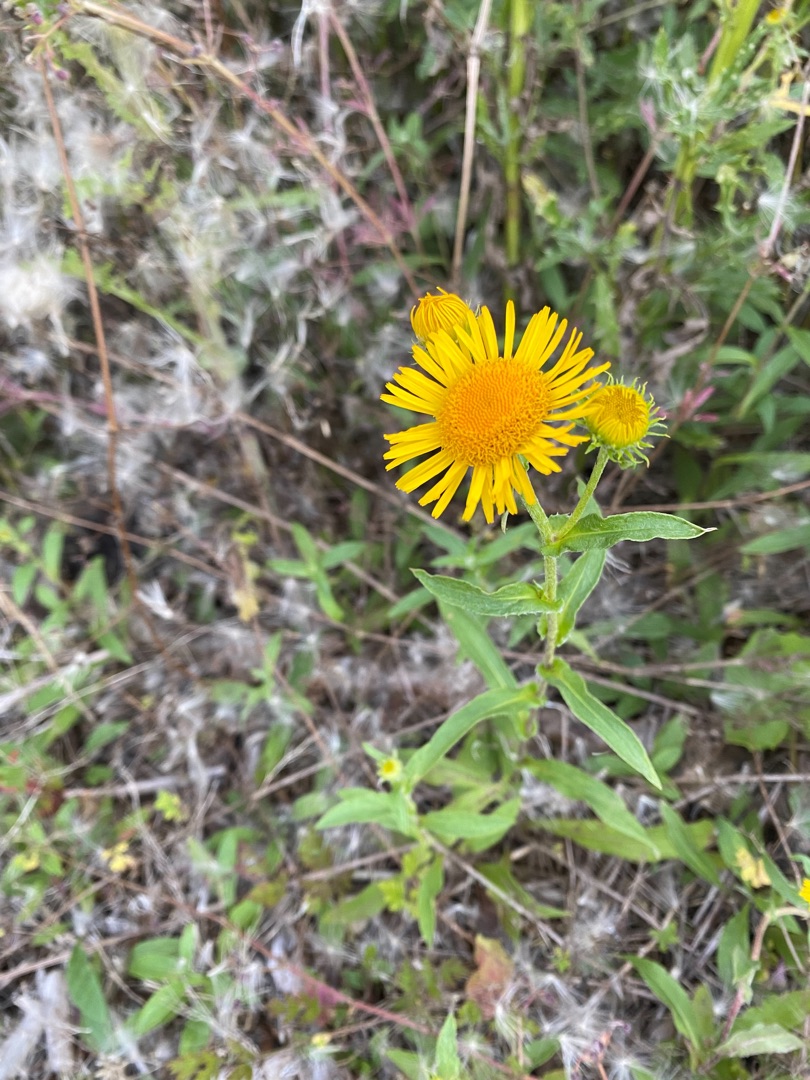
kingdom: Plantae
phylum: Tracheophyta
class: Magnoliopsida
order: Asterales
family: Asteraceae
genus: Pentanema
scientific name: Pentanema salicinum
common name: Pile-alant
